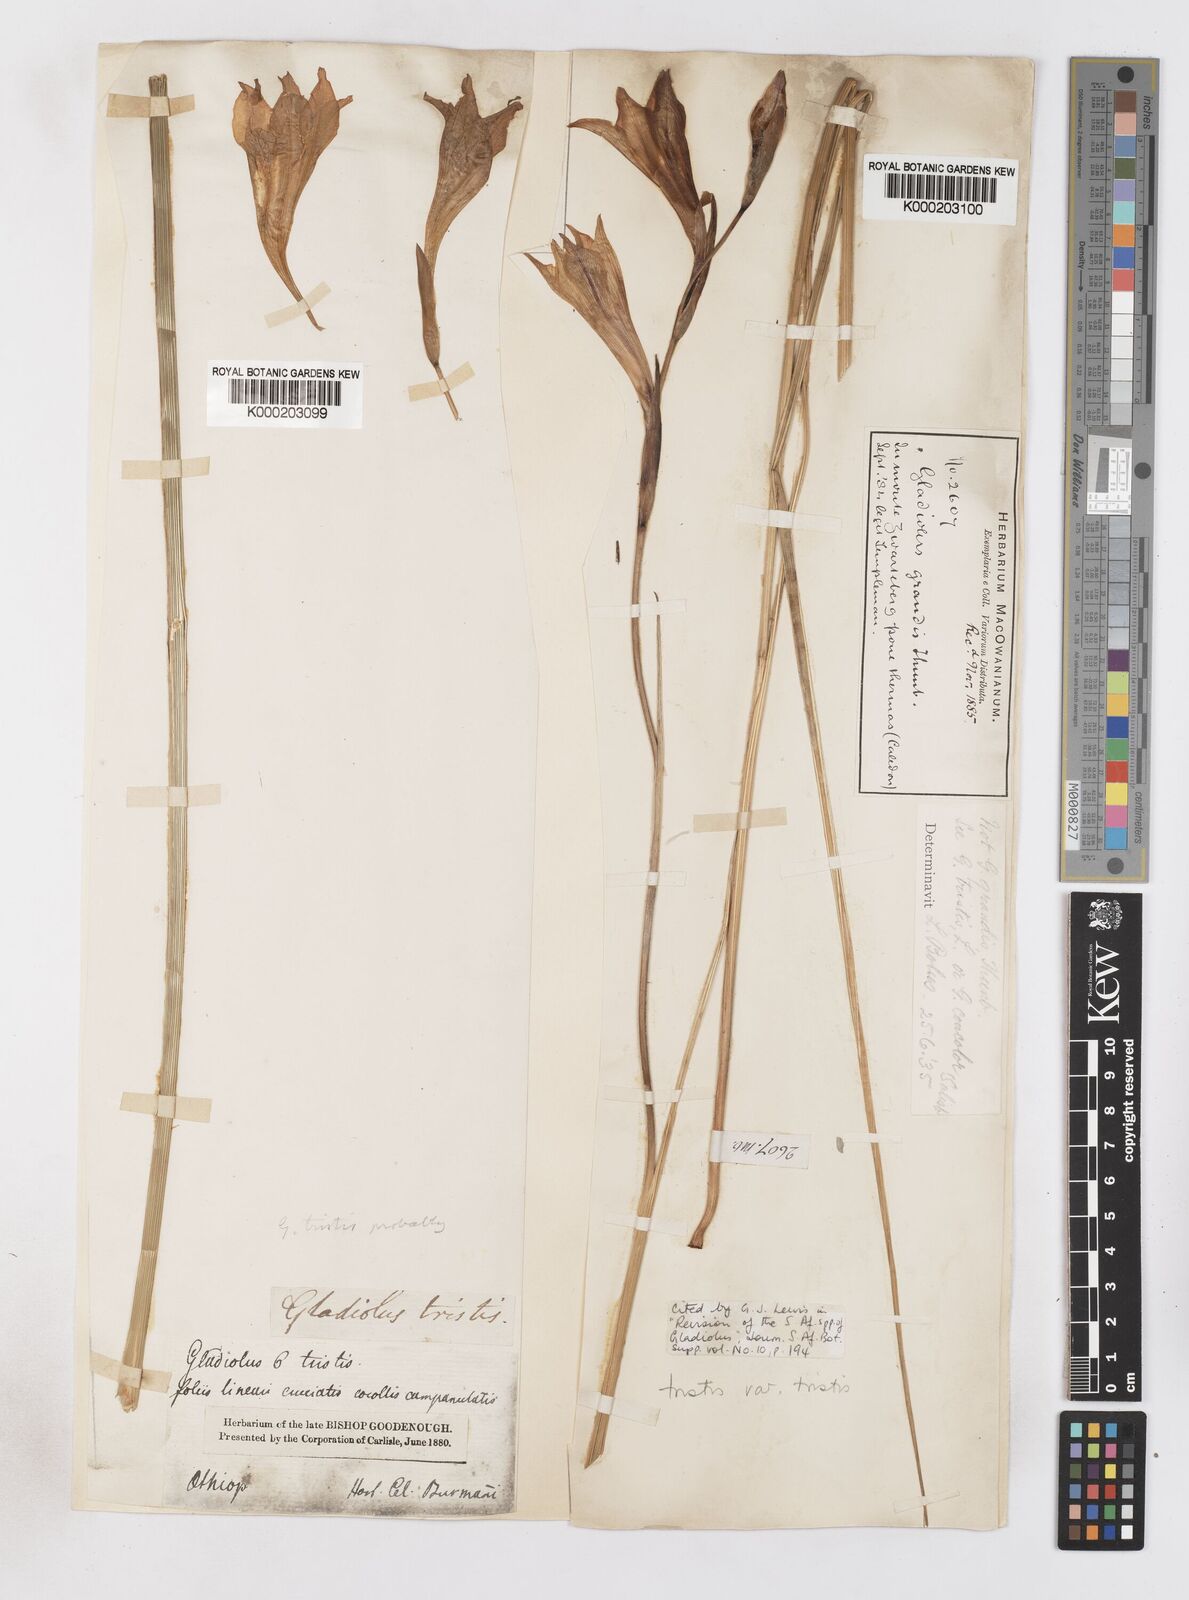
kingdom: Plantae
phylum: Tracheophyta
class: Liliopsida
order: Asparagales
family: Iridaceae
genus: Gladiolus
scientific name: Gladiolus tristis
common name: Ever-flowering gladiolus
